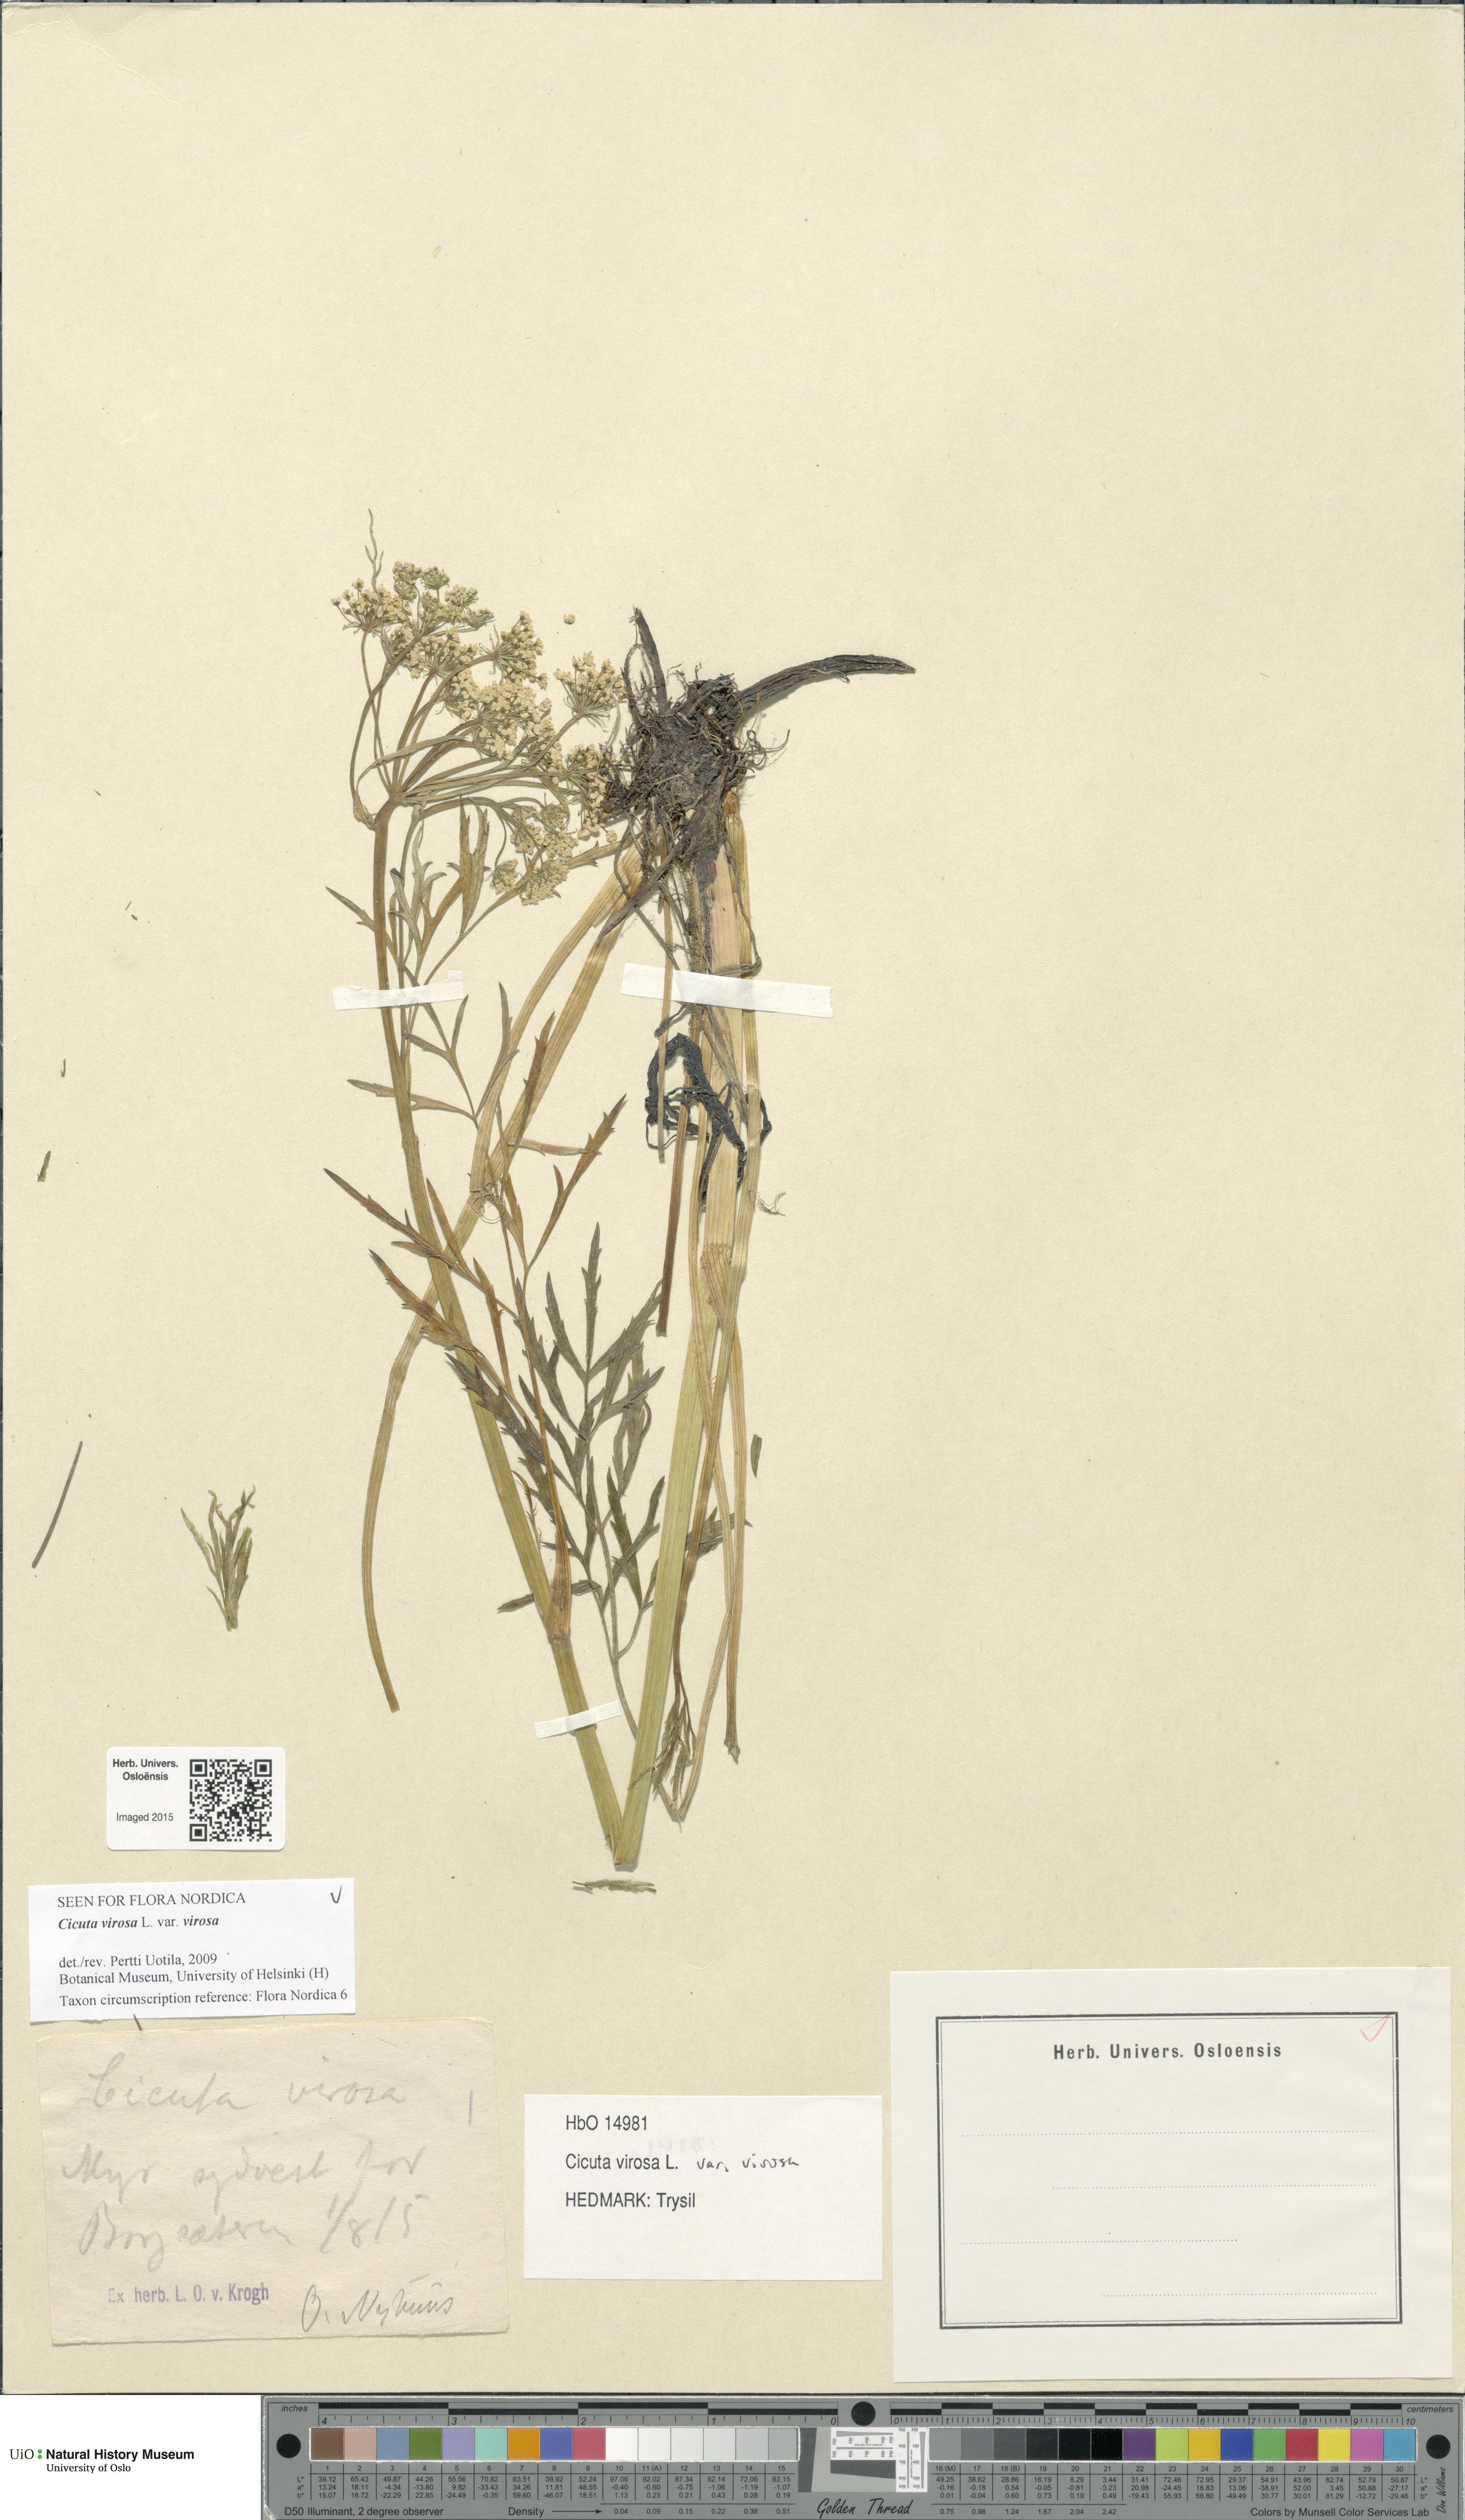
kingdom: Plantae
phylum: Tracheophyta
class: Magnoliopsida
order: Apiales
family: Apiaceae
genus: Cicuta
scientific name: Cicuta virosa
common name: Cowbane
